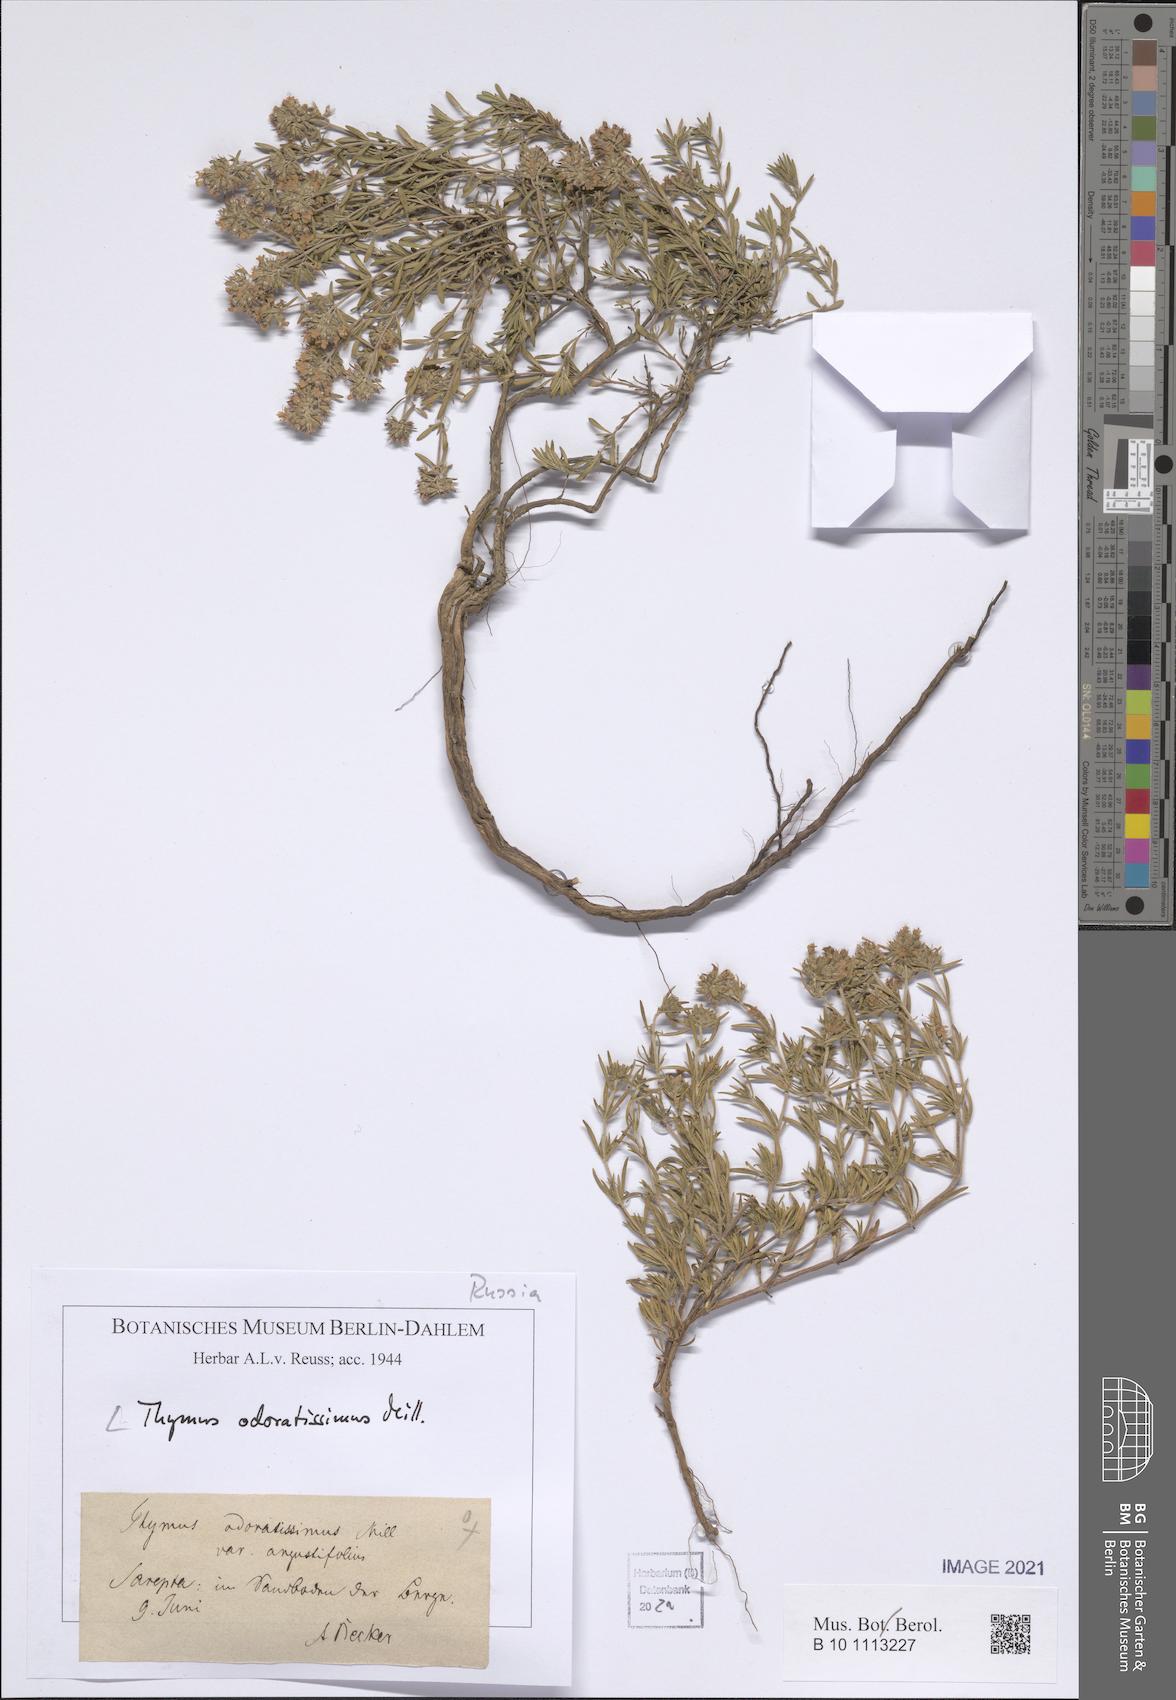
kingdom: Plantae
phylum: Tracheophyta
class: Magnoliopsida
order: Lamiales
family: Lamiaceae
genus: Thymus
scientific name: Thymus odoratissimus
